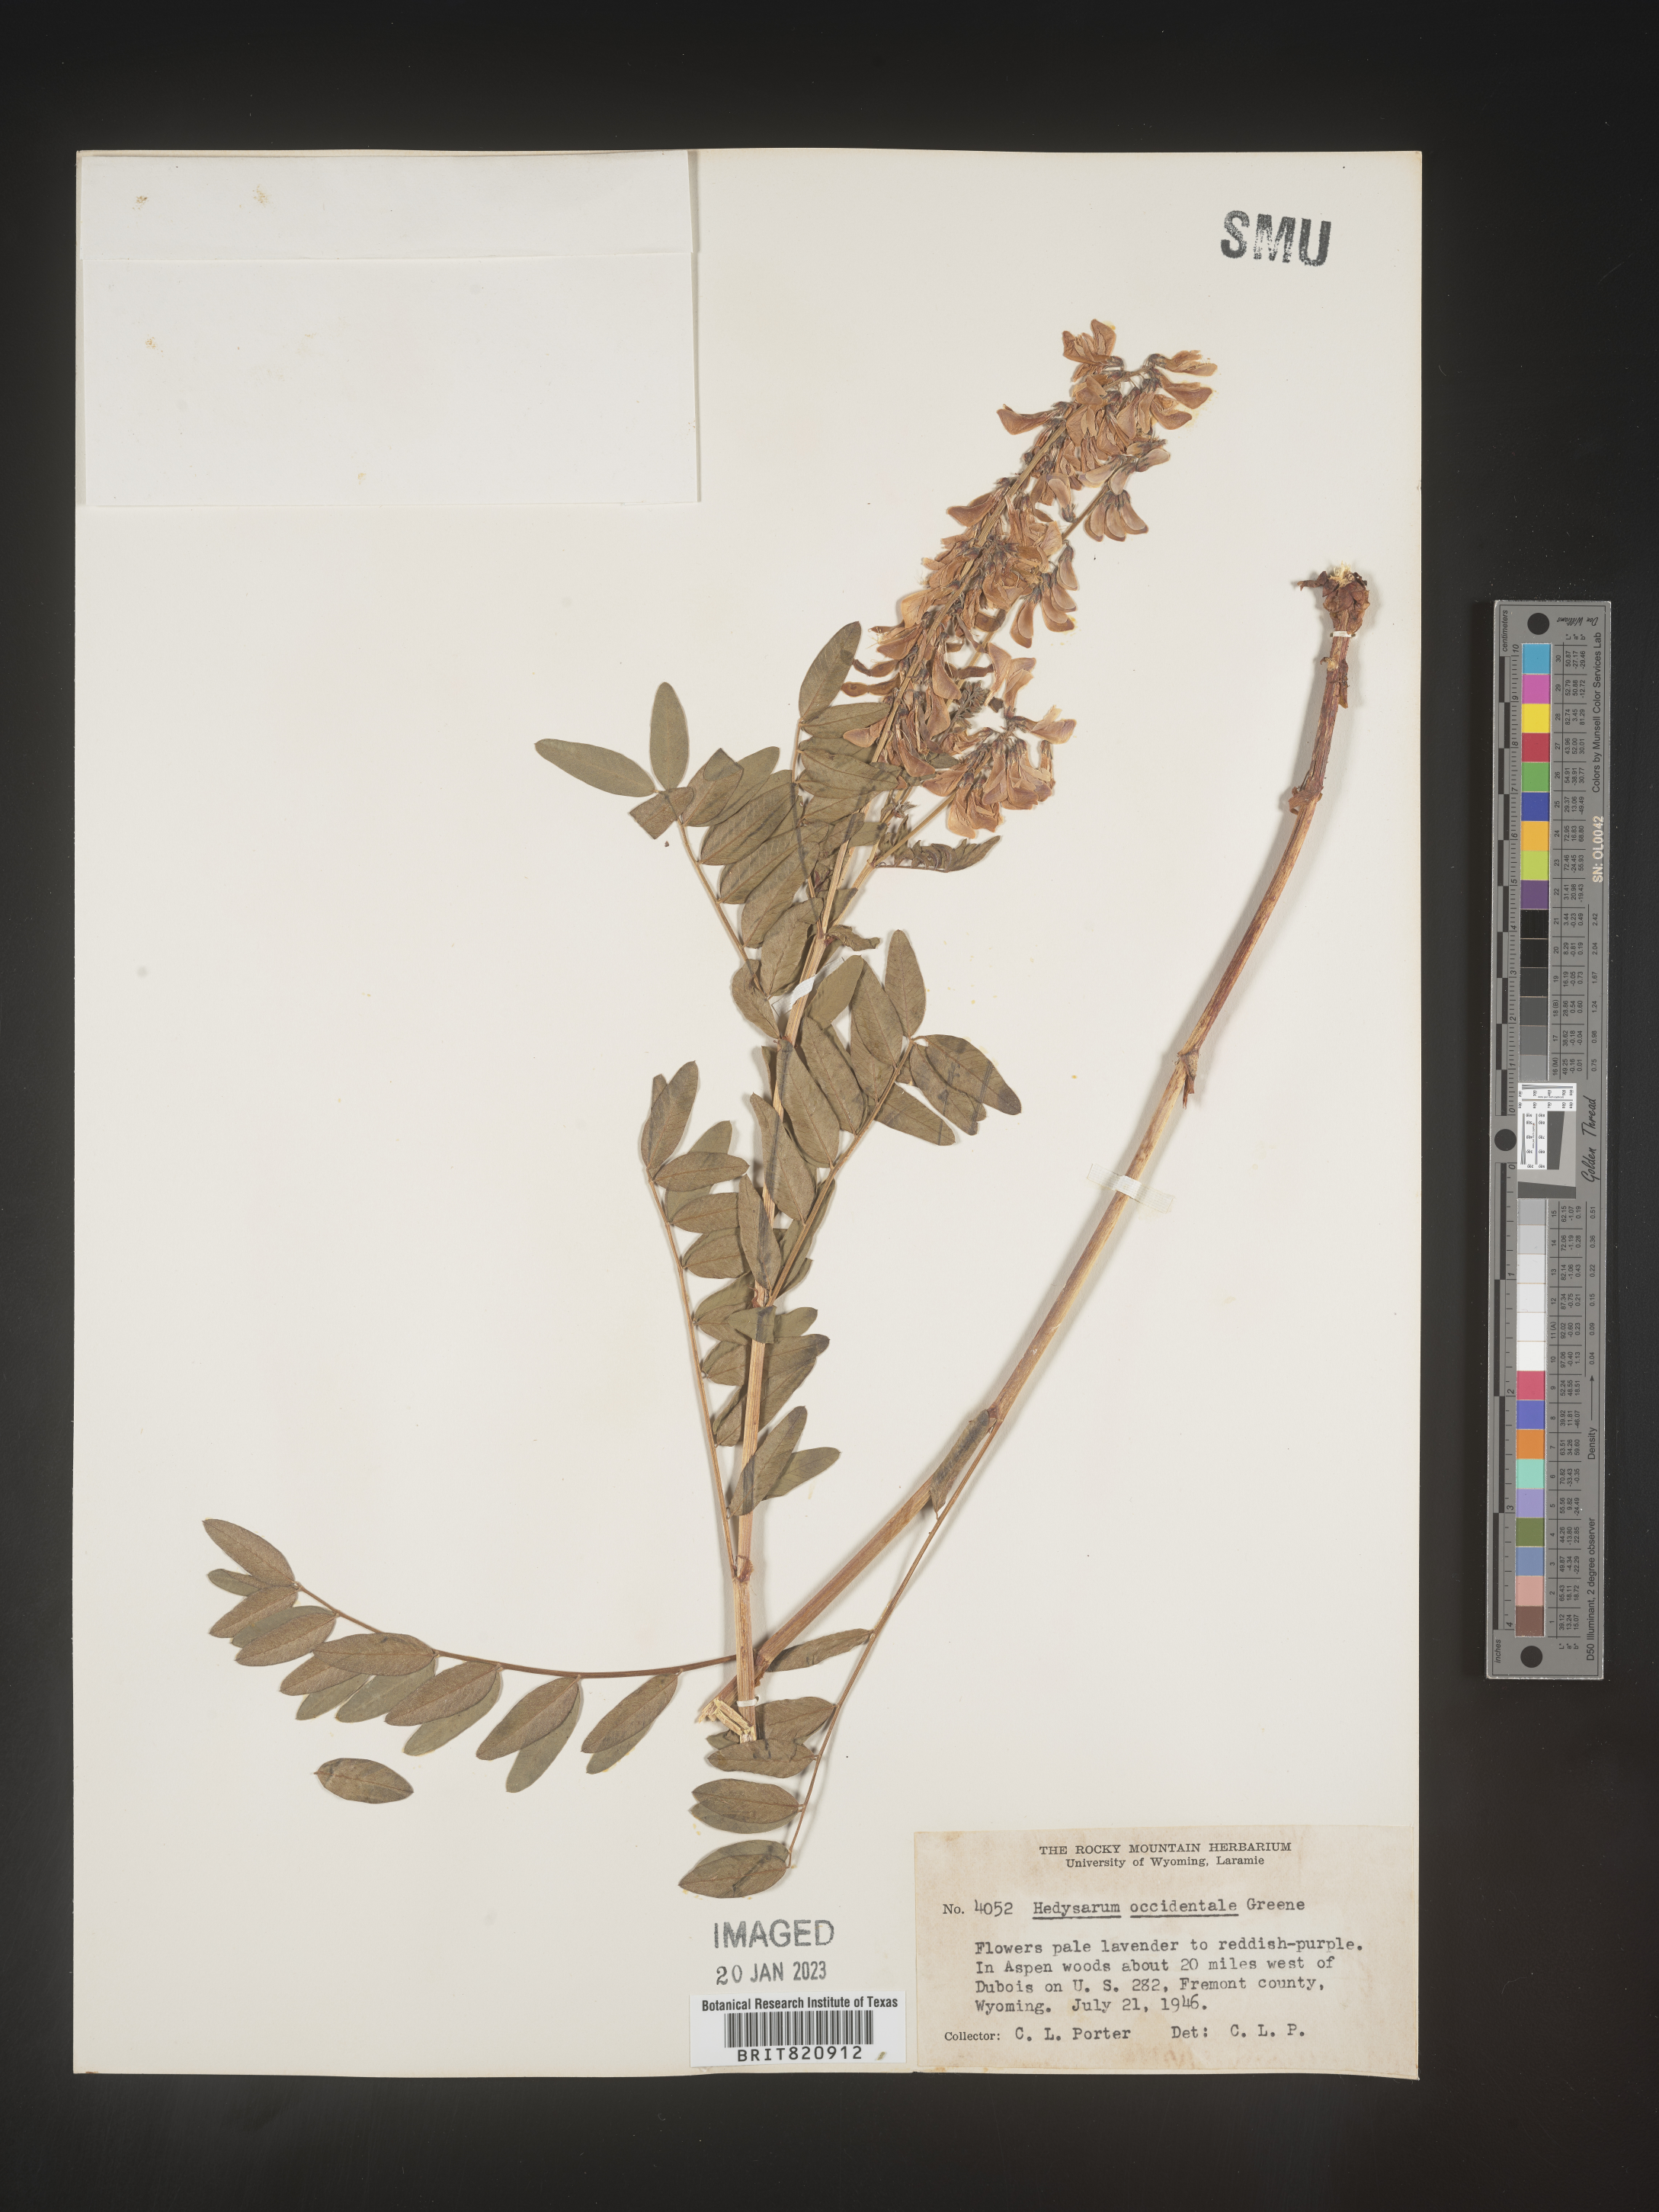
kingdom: Plantae
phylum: Tracheophyta
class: Magnoliopsida
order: Fabales
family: Fabaceae
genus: Hedysarum
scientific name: Hedysarum occidentale
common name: Western hedysarum
